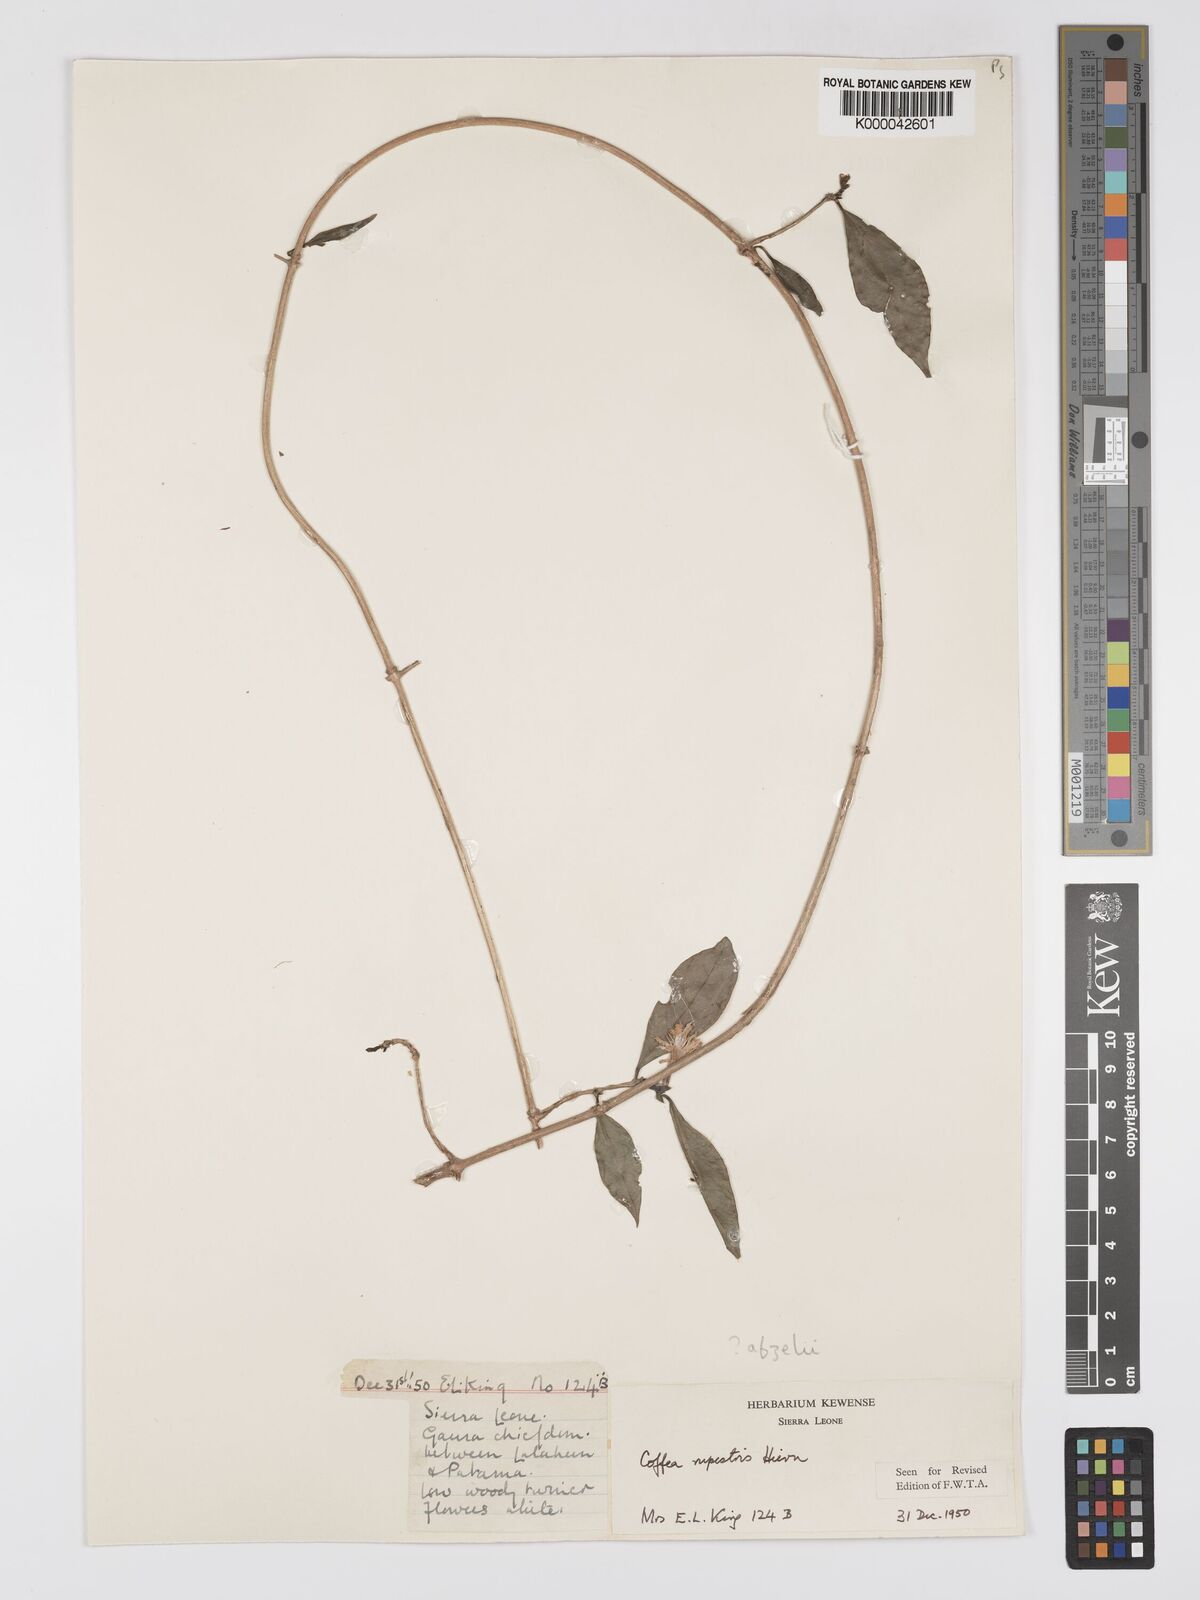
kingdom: Plantae
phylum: Tracheophyta
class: Magnoliopsida
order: Gentianales
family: Rubiaceae
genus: Argocoffeopsis
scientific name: Argocoffeopsis afzelii
